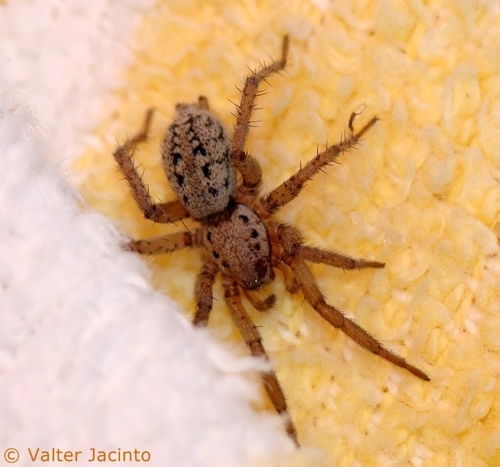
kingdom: Animalia
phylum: Arthropoda
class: Arachnida
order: Araneae
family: Gnaphosidae
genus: Berlandina
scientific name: Berlandina plumalis
